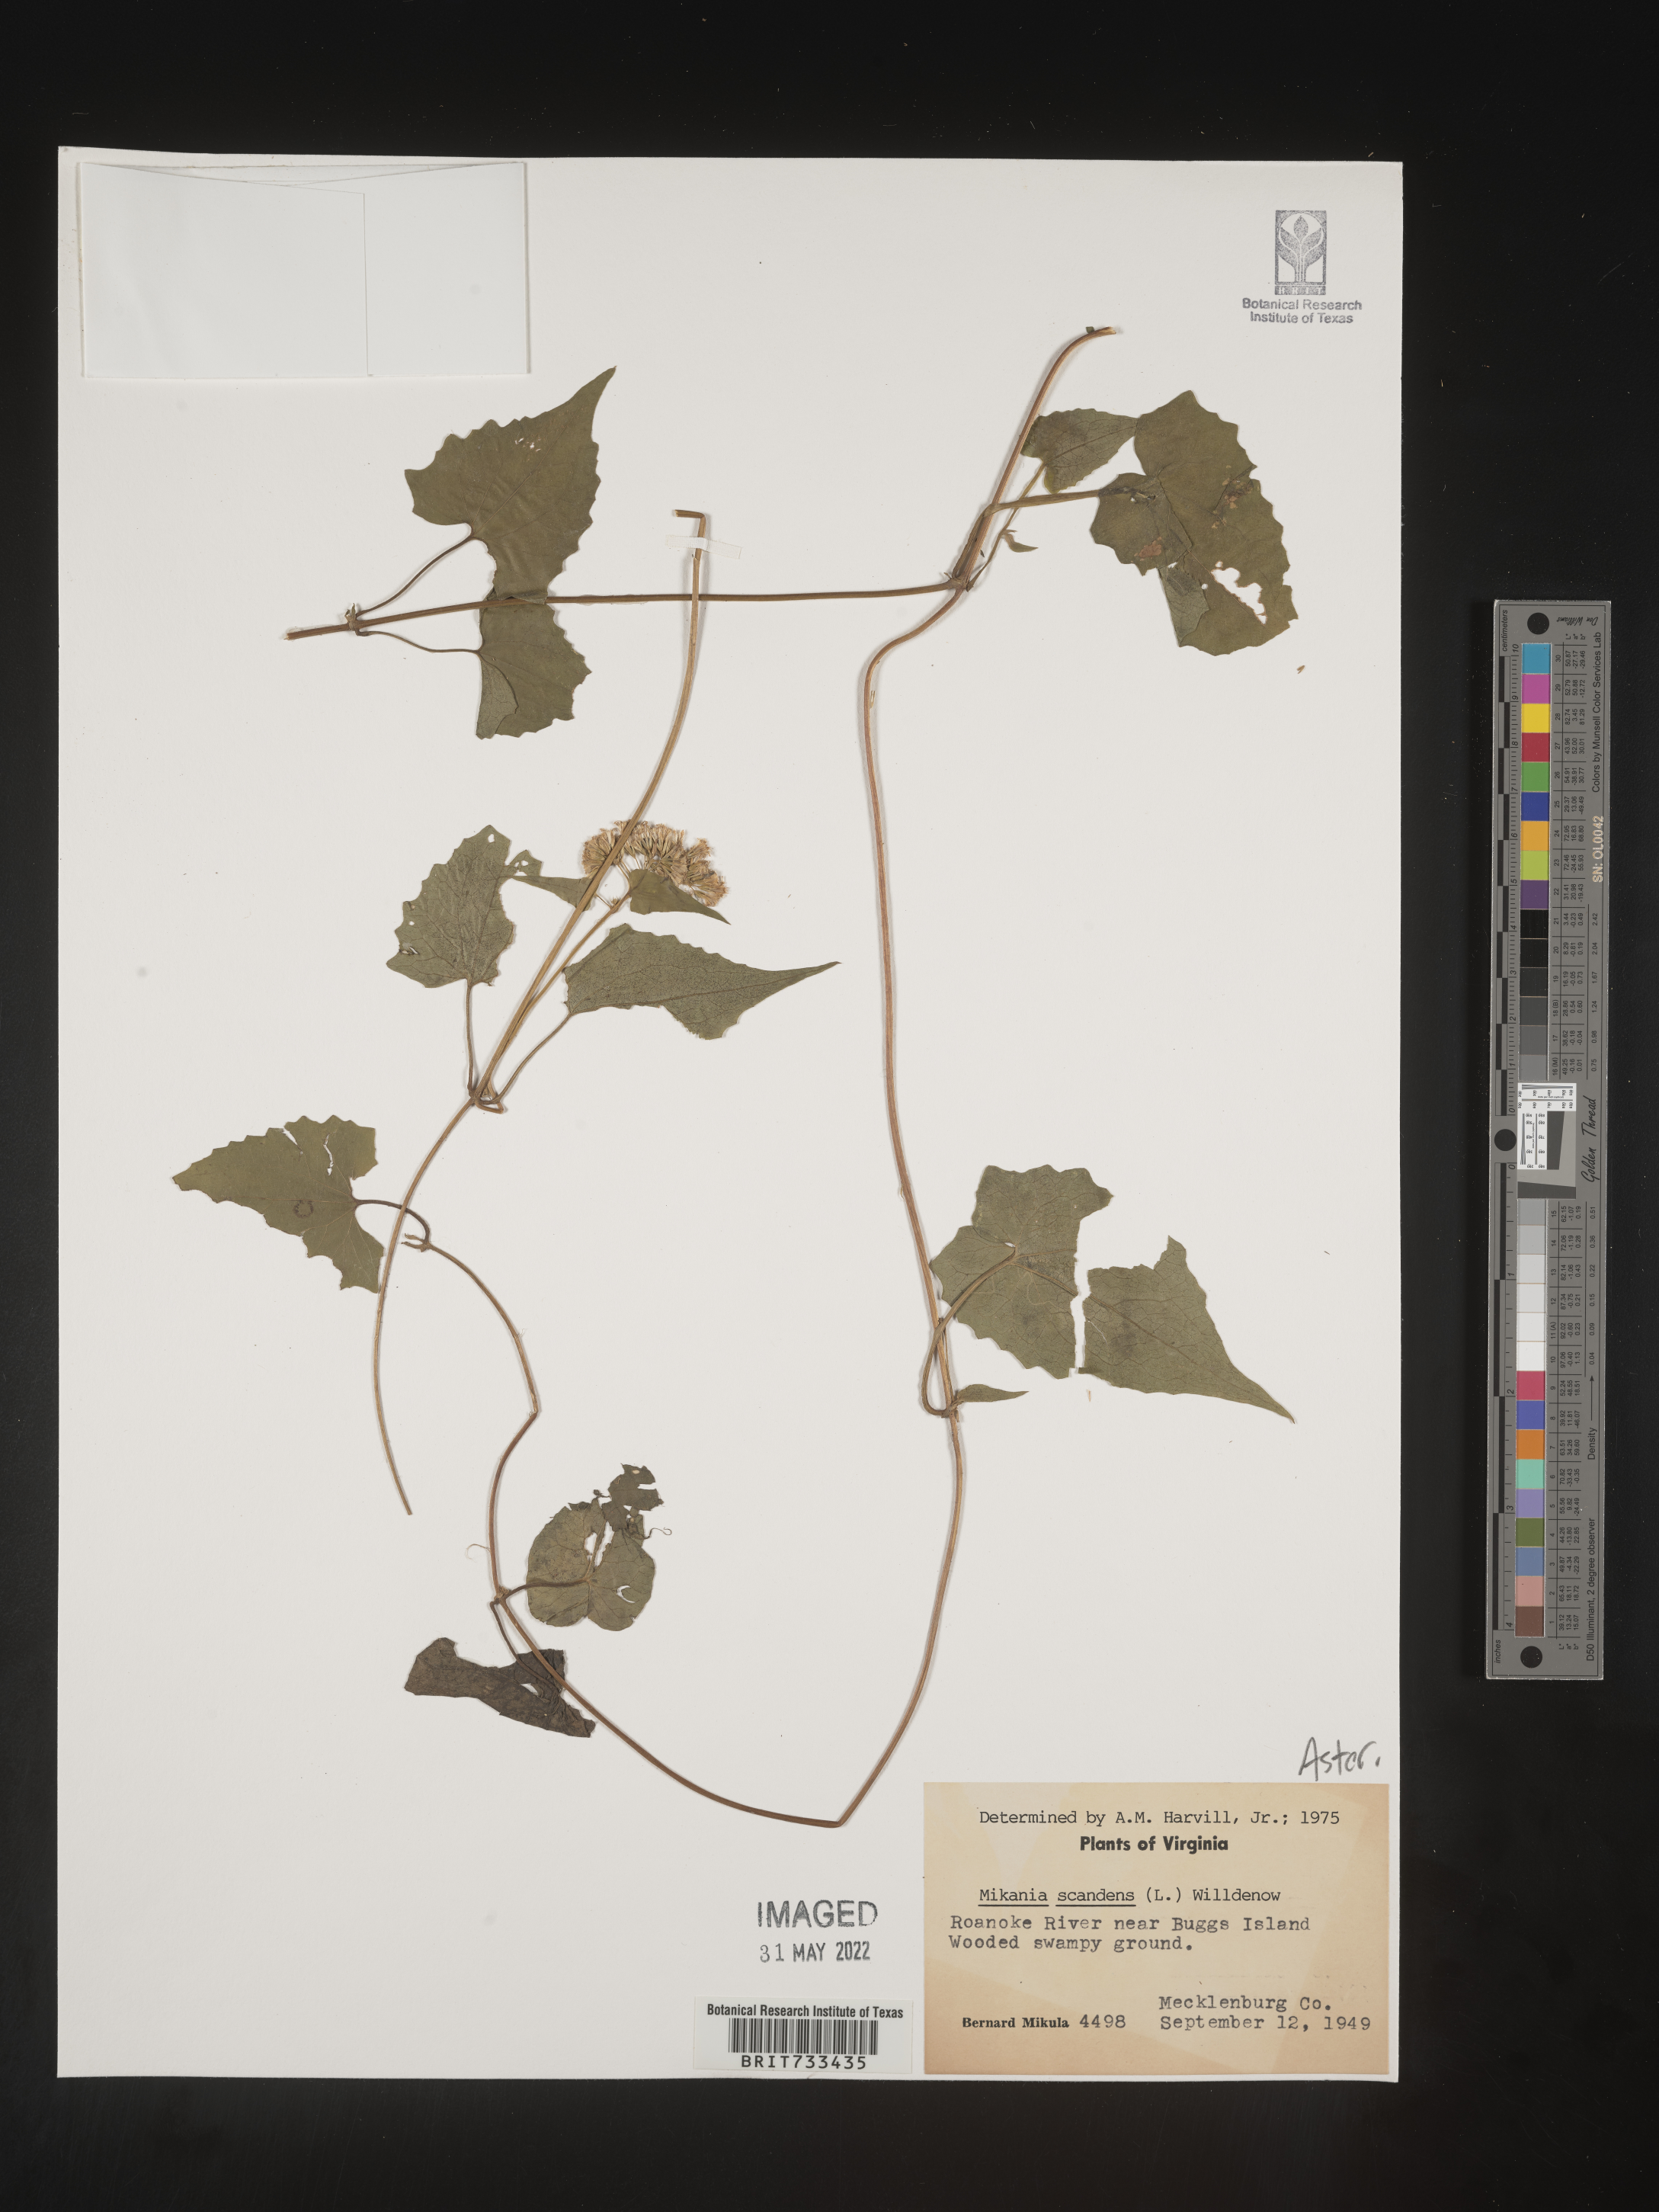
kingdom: Plantae
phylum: Tracheophyta
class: Magnoliopsida
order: Asterales
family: Asteraceae
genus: Mikania
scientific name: Mikania scandens
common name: Climbing hempvine
